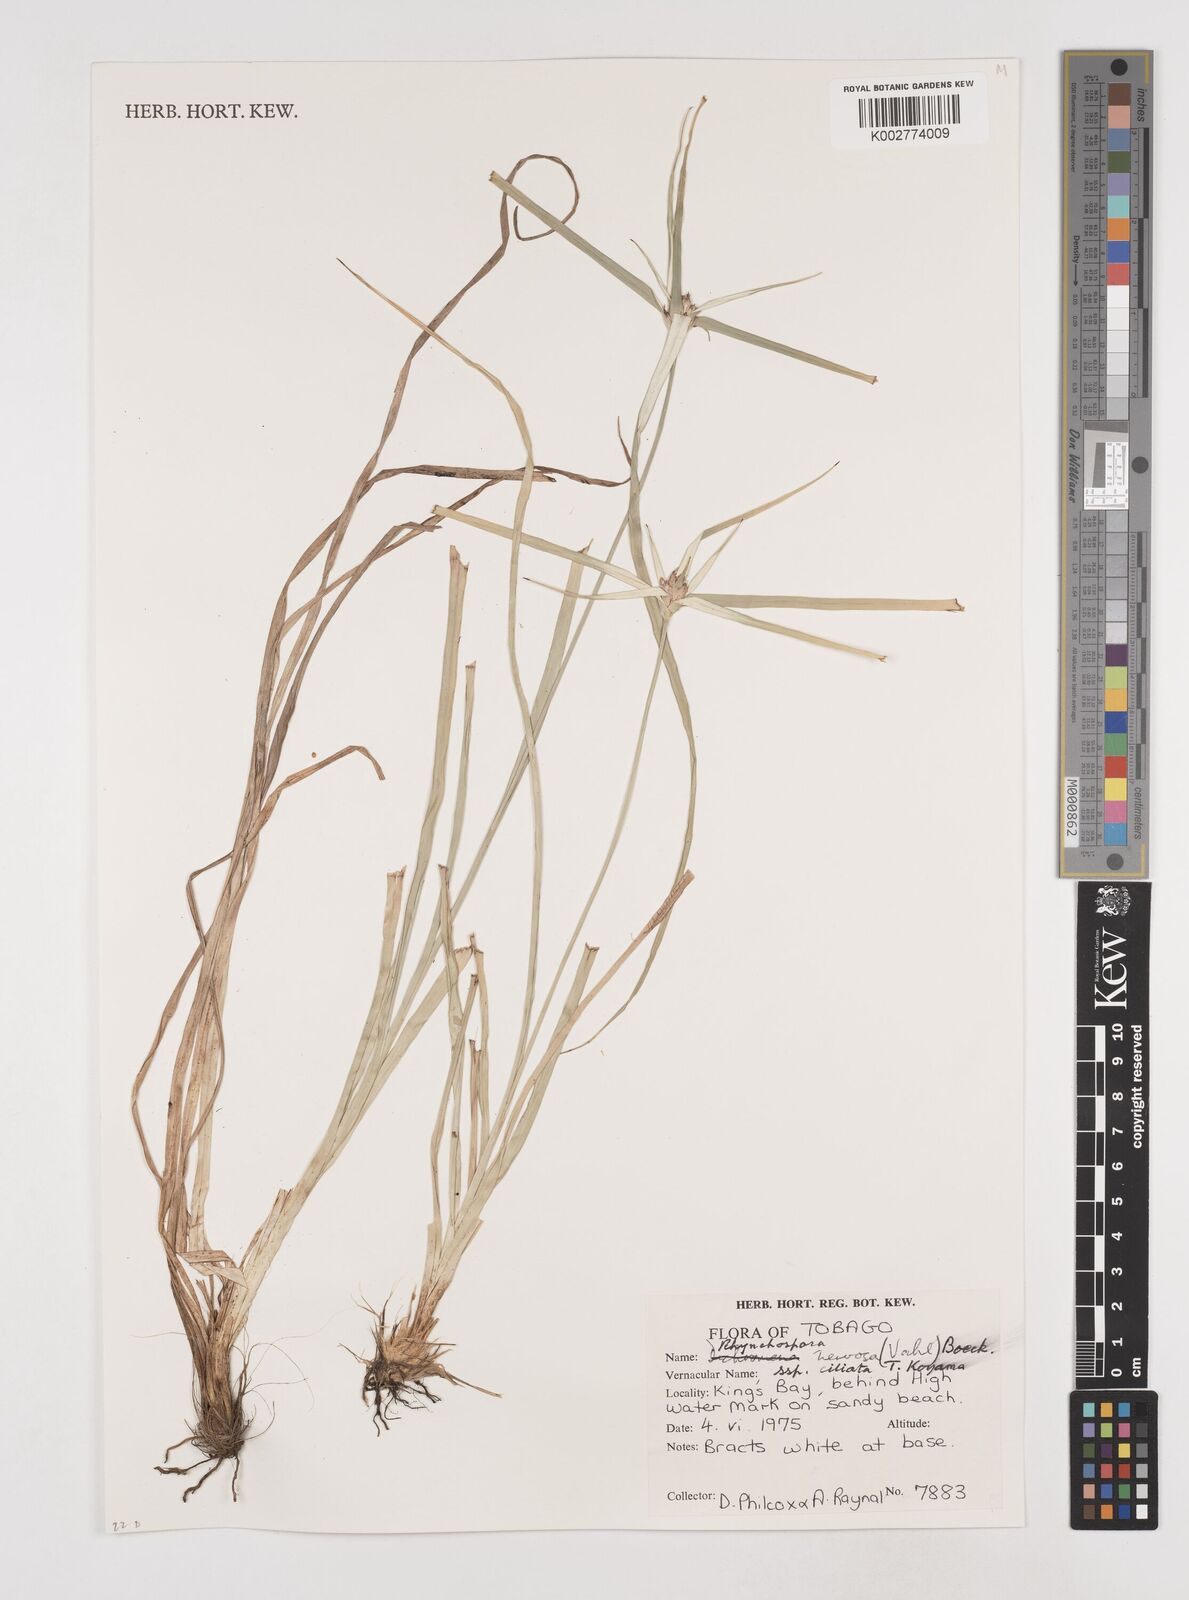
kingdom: Plantae
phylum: Tracheophyta
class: Liliopsida
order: Poales
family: Cyperaceae
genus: Rhynchospora
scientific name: Rhynchospora pura
